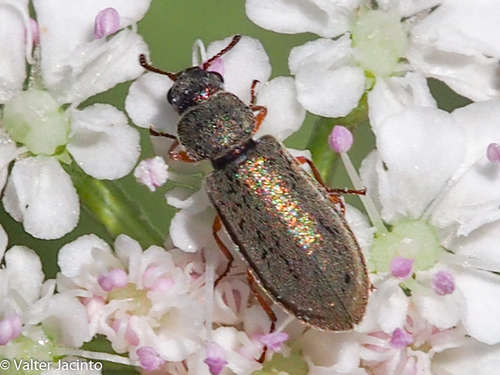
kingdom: Animalia
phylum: Arthropoda
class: Insecta
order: Coleoptera
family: Dasytidae
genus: Danacea
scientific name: Danacea
